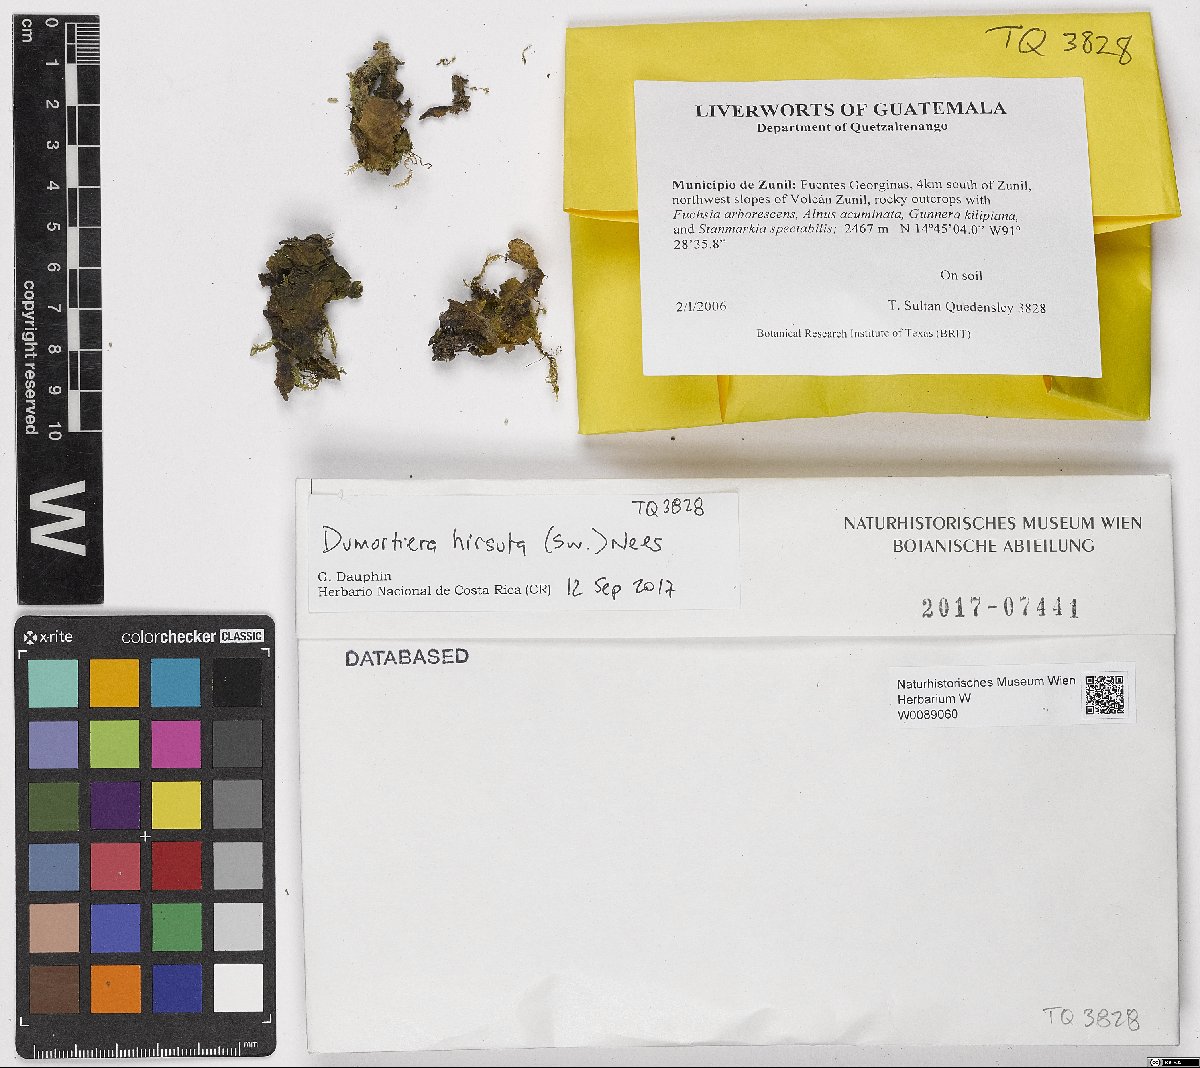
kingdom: Plantae
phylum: Marchantiophyta
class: Marchantiopsida
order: Marchantiales
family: Dumortieraceae
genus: Dumortiera
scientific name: Dumortiera hirsuta
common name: Dumortier's liverwort
